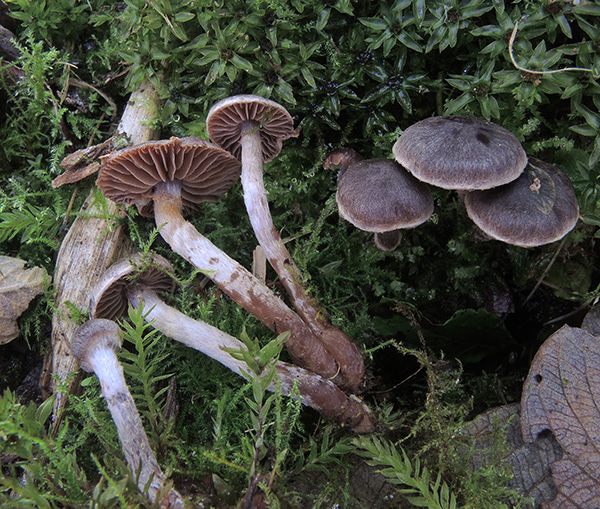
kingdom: Fungi
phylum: Basidiomycota
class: Agaricomycetes
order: Agaricales
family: Cortinariaceae
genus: Cortinarius
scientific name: Cortinarius decipiens
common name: blåsort slørhat
